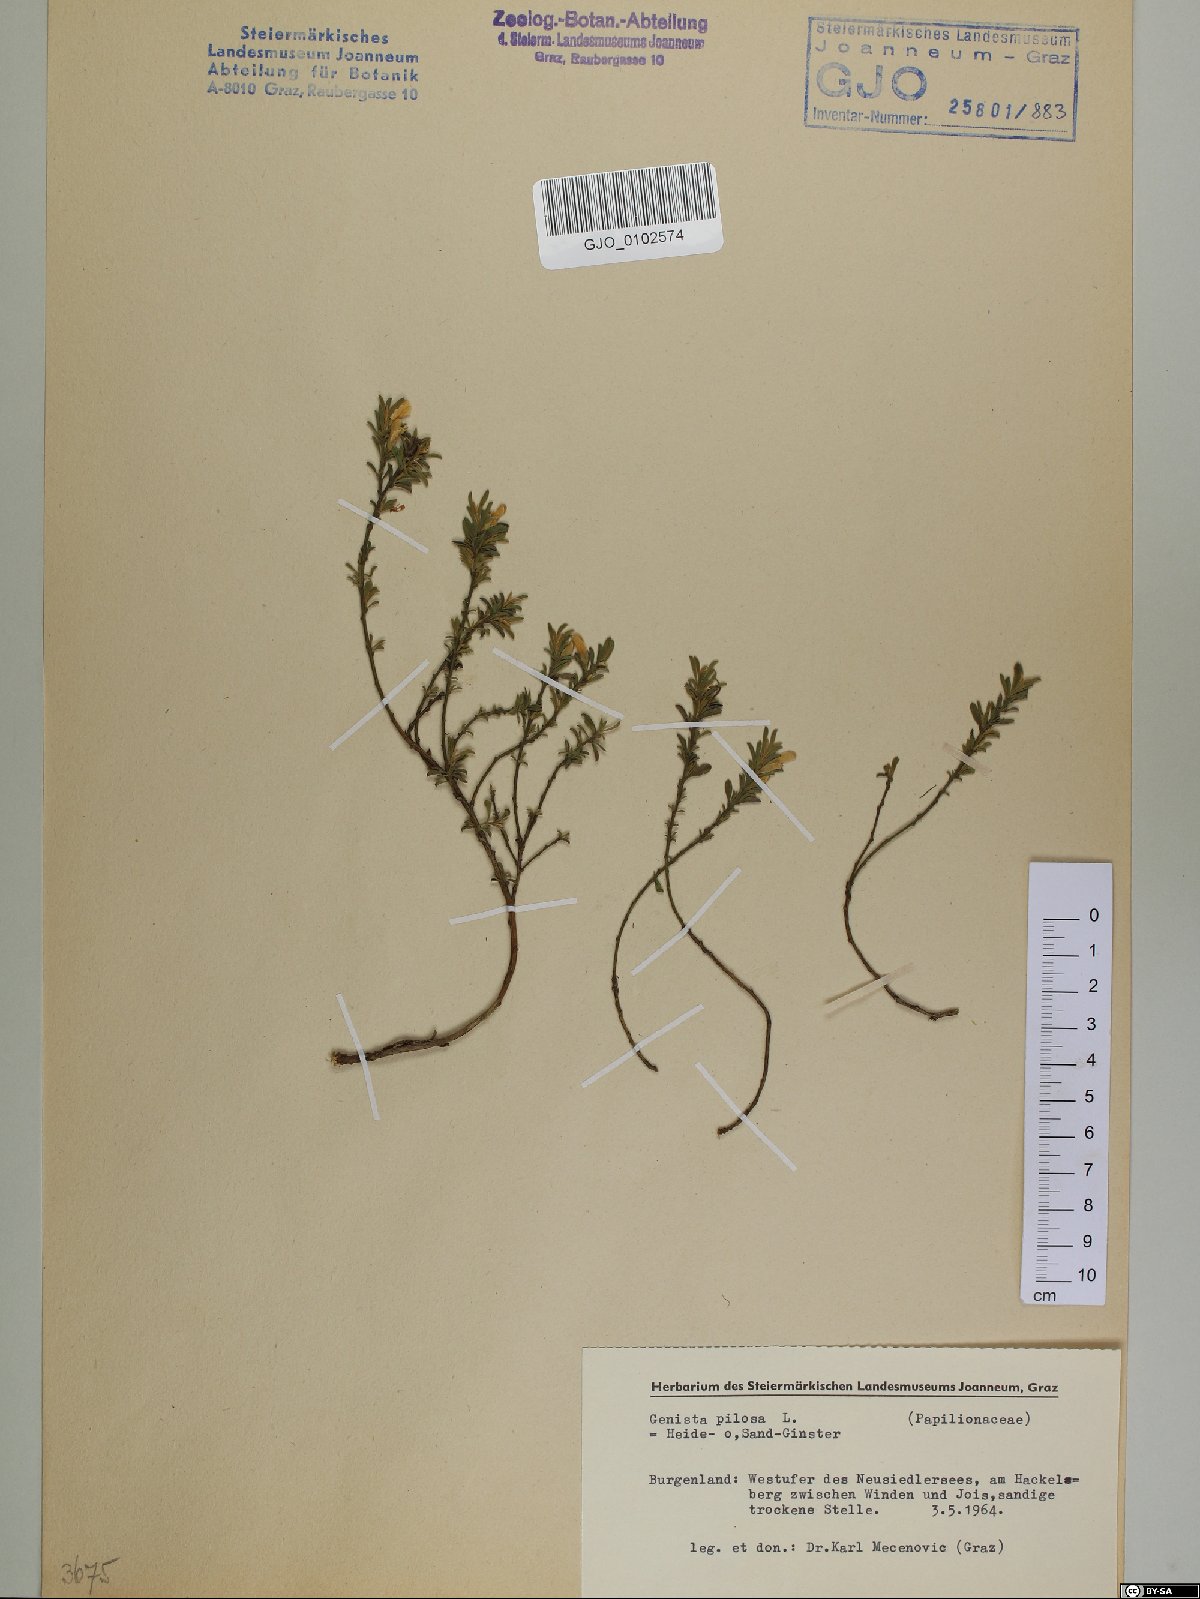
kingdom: Plantae
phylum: Tracheophyta
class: Magnoliopsida
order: Fabales
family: Fabaceae
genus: Genista
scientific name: Genista pilosa
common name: Hairy greenweed
